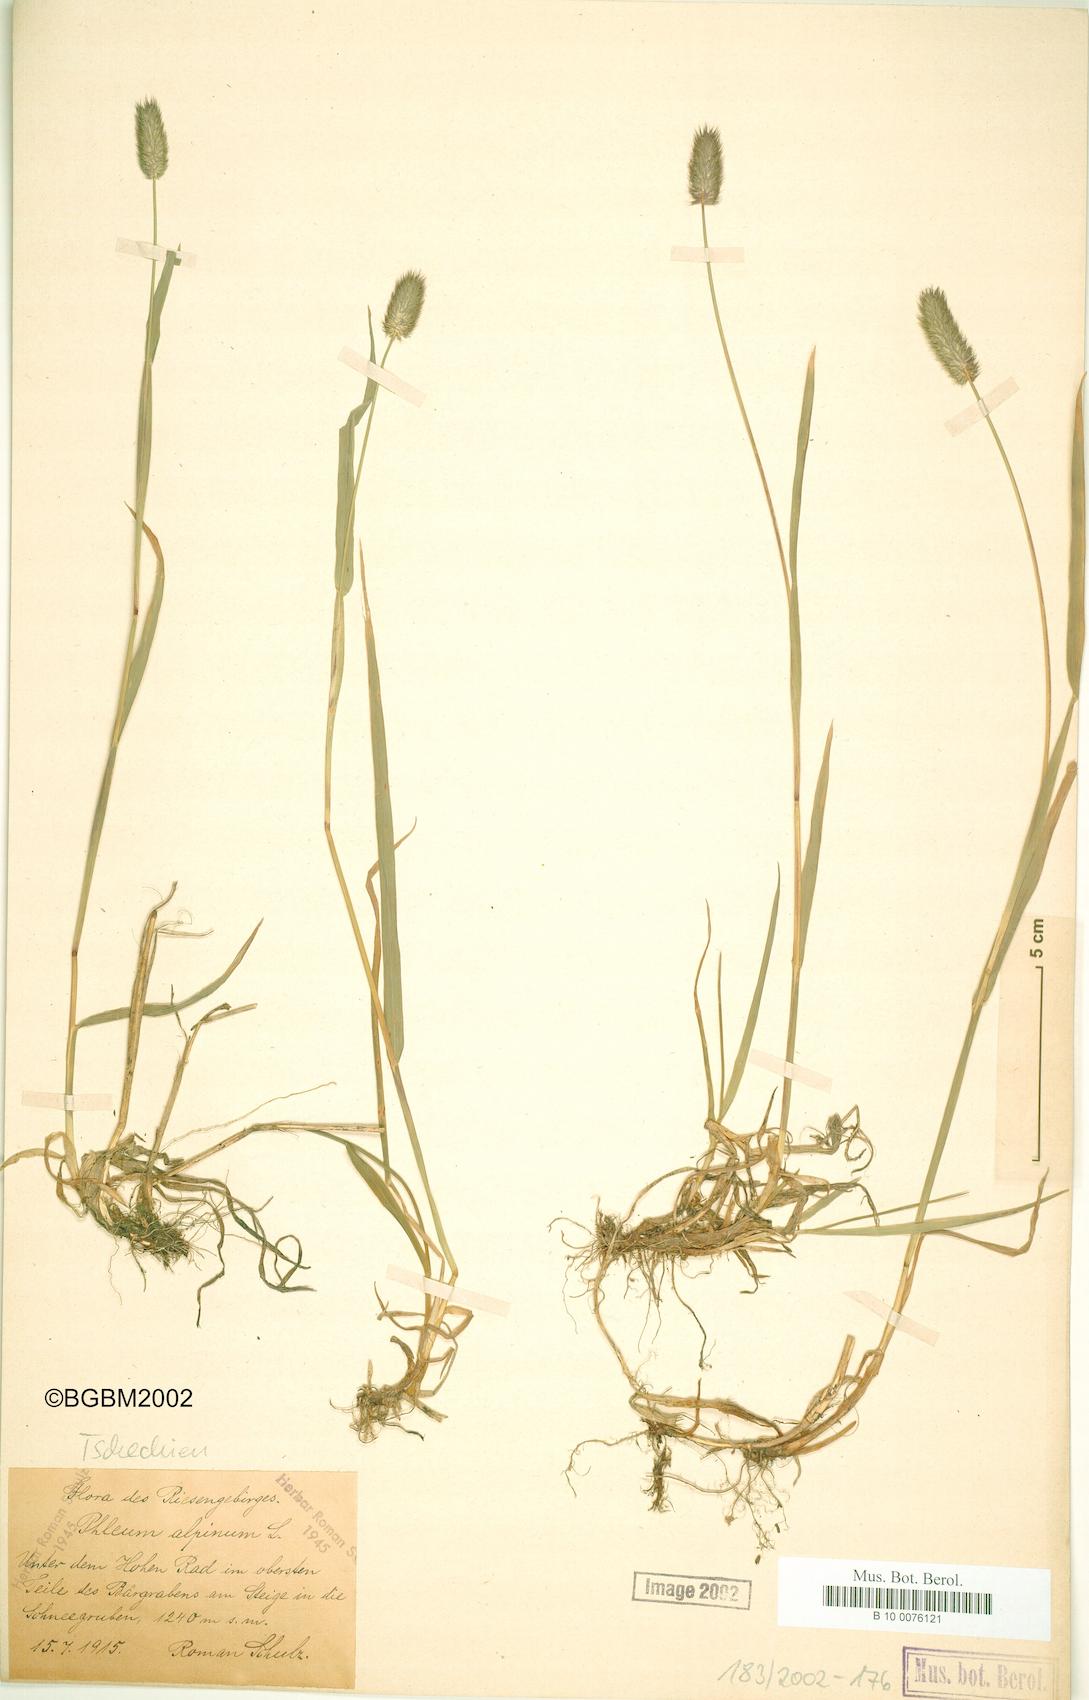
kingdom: Plantae
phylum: Tracheophyta
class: Liliopsida
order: Poales
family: Poaceae
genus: Phleum
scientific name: Phleum alpinum
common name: Alpine cat's-tail
